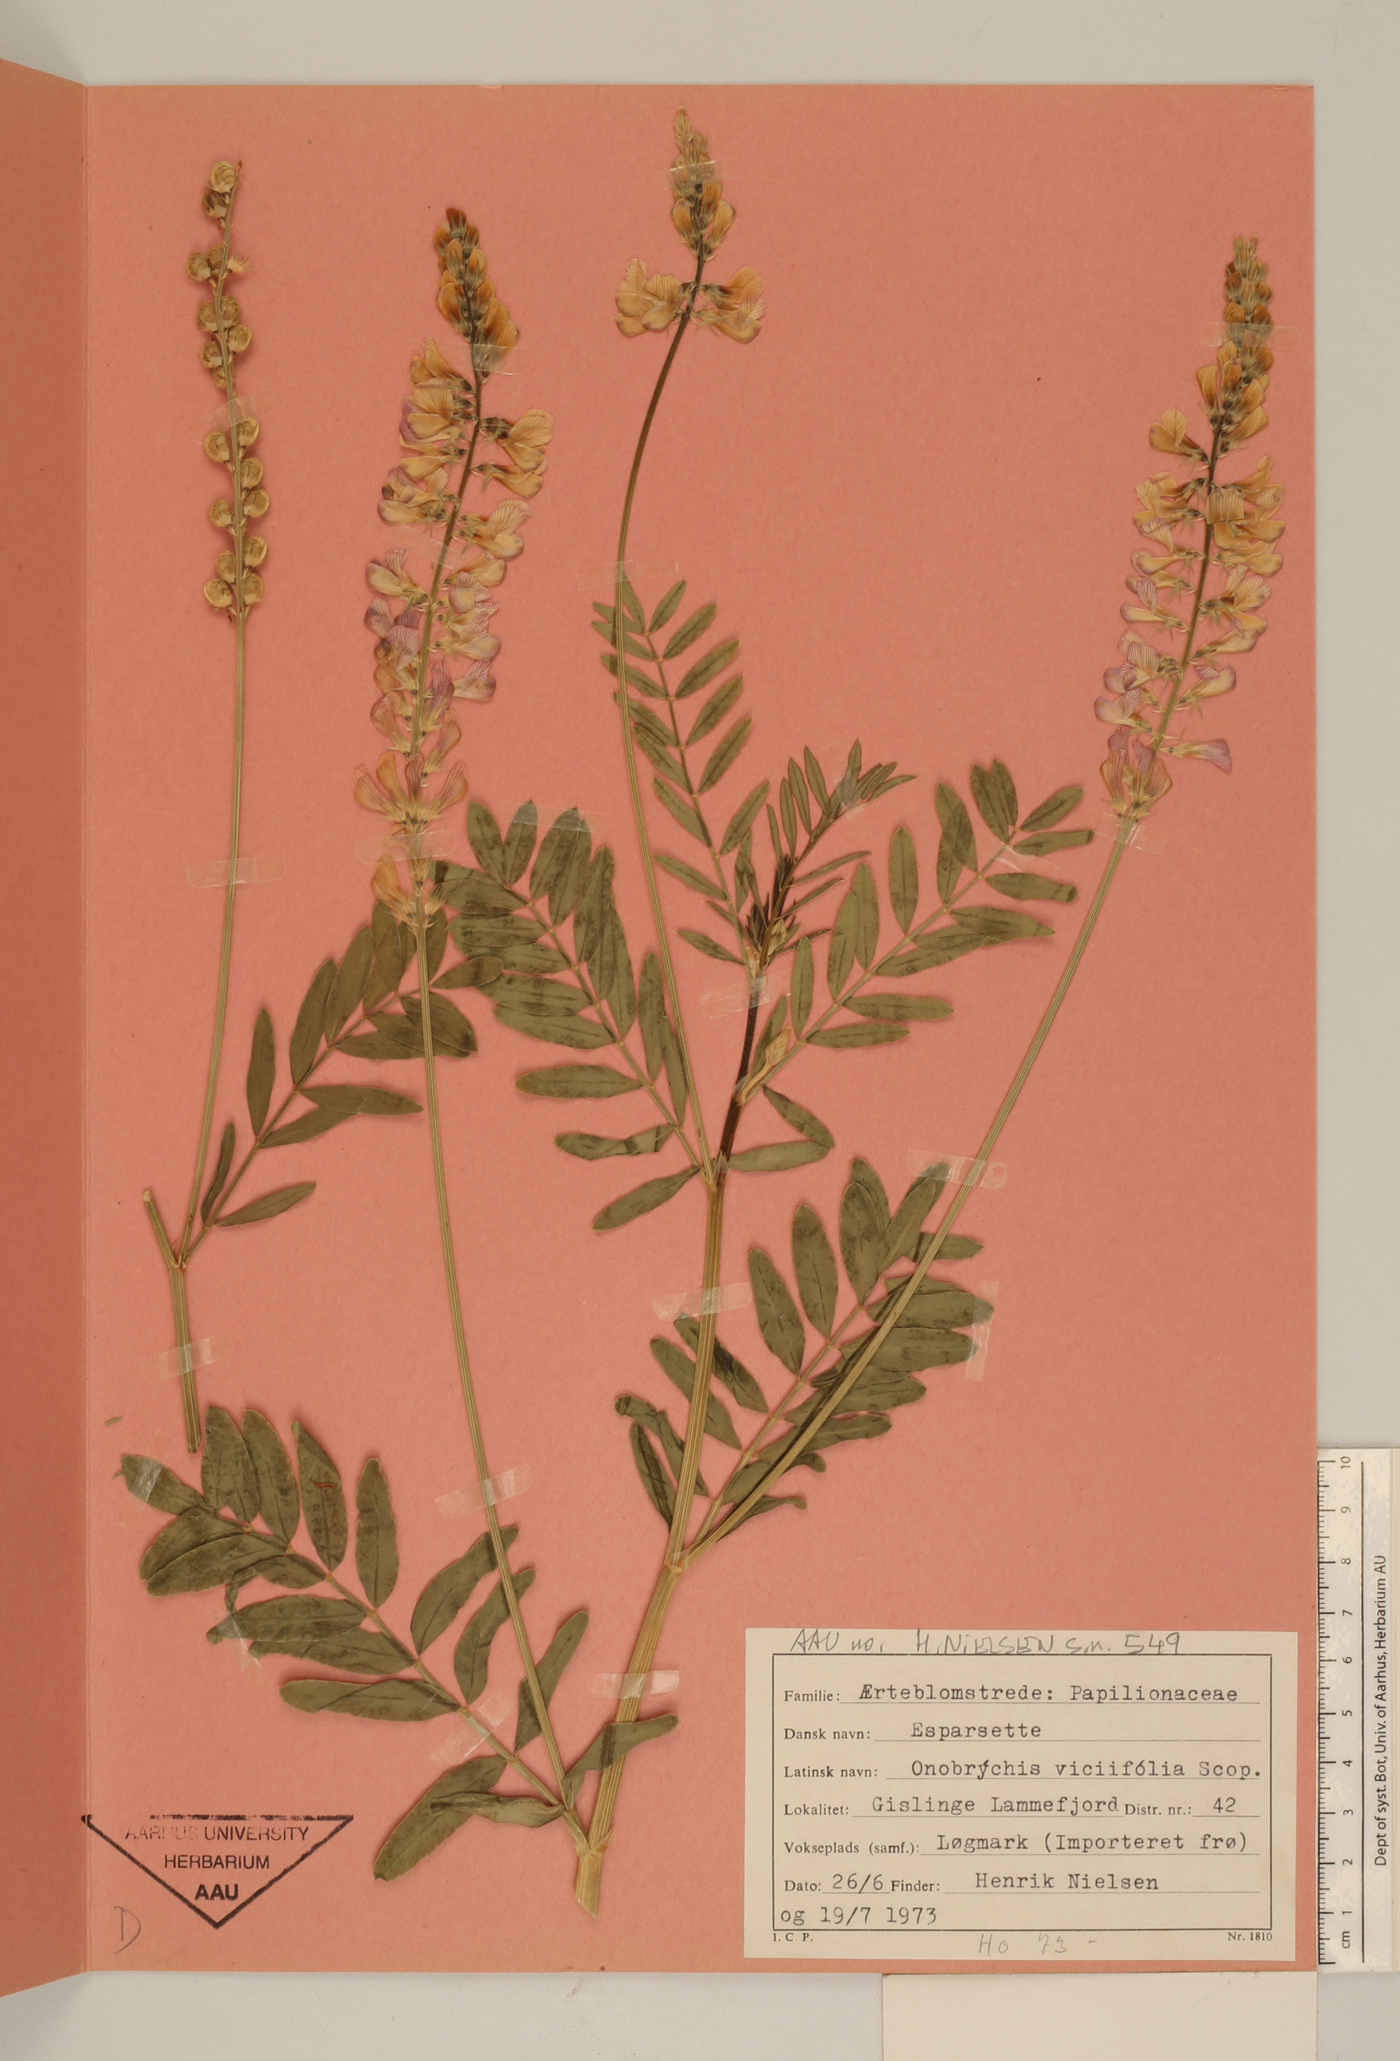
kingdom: Plantae
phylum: Tracheophyta
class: Magnoliopsida
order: Fabales
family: Fabaceae
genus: Onobrychis
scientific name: Onobrychis viciifolia
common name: Sainfoin
